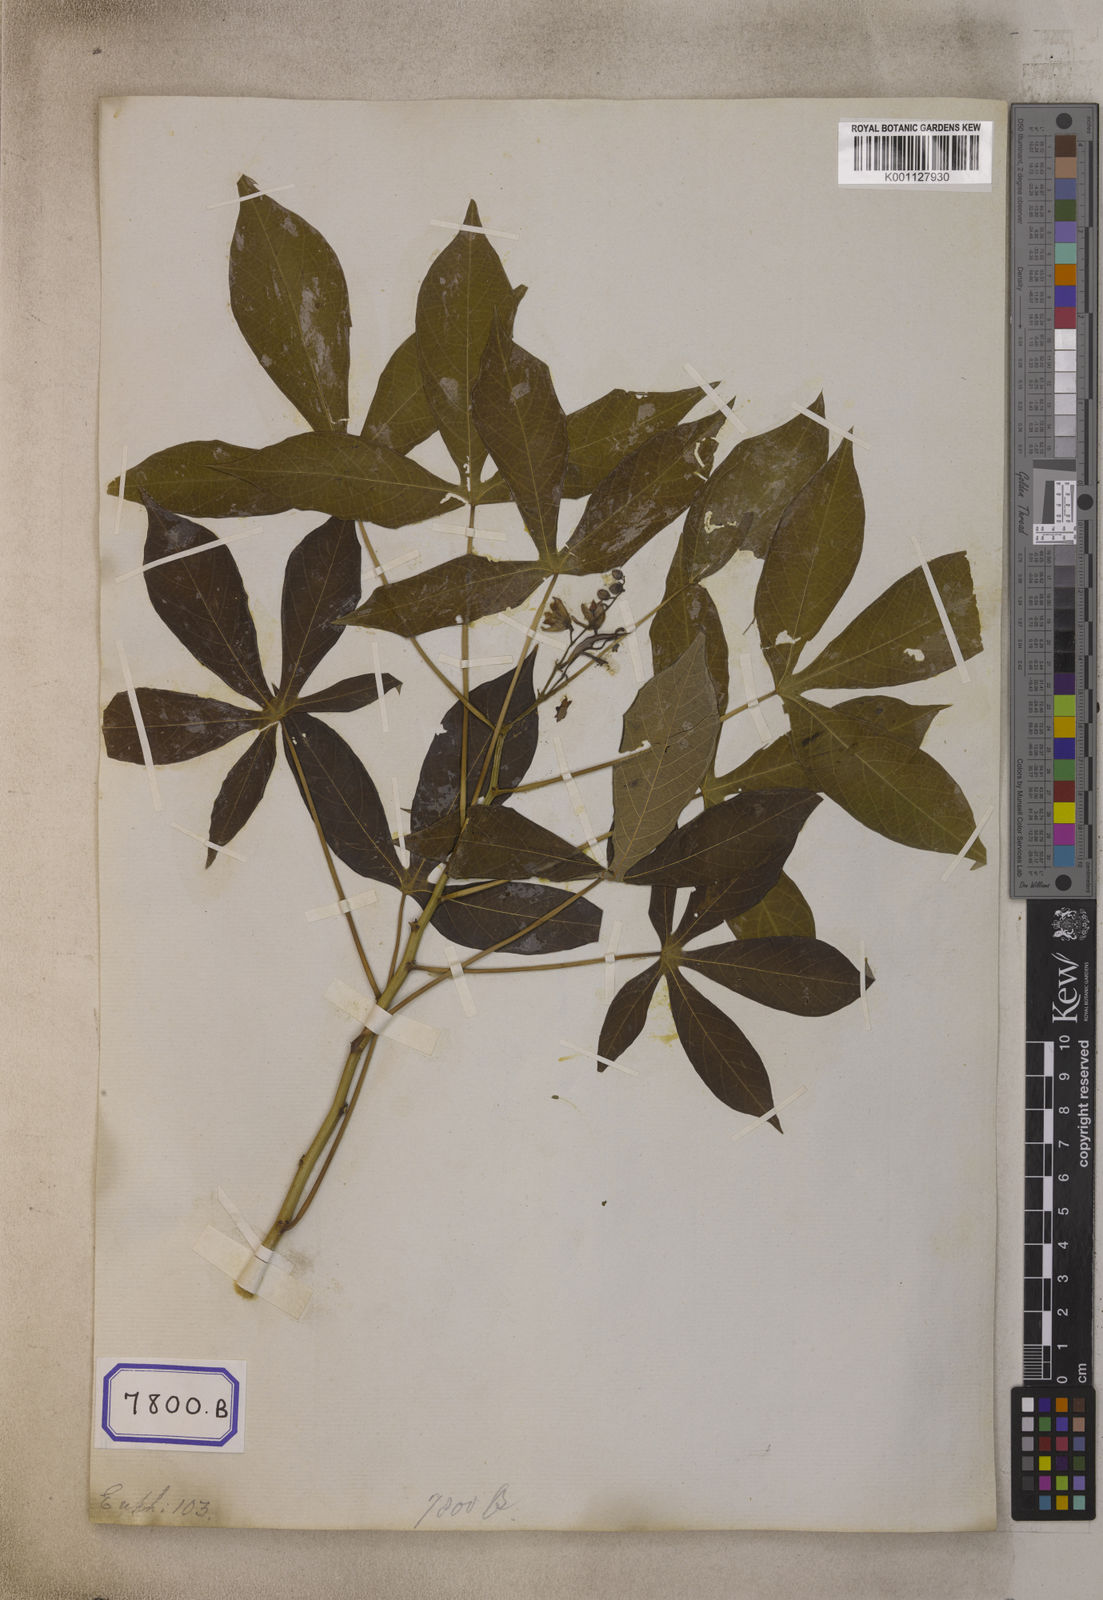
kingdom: Plantae
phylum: Tracheophyta
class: Magnoliopsida
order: Malpighiales
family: Euphorbiaceae
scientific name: Euphorbiaceae
